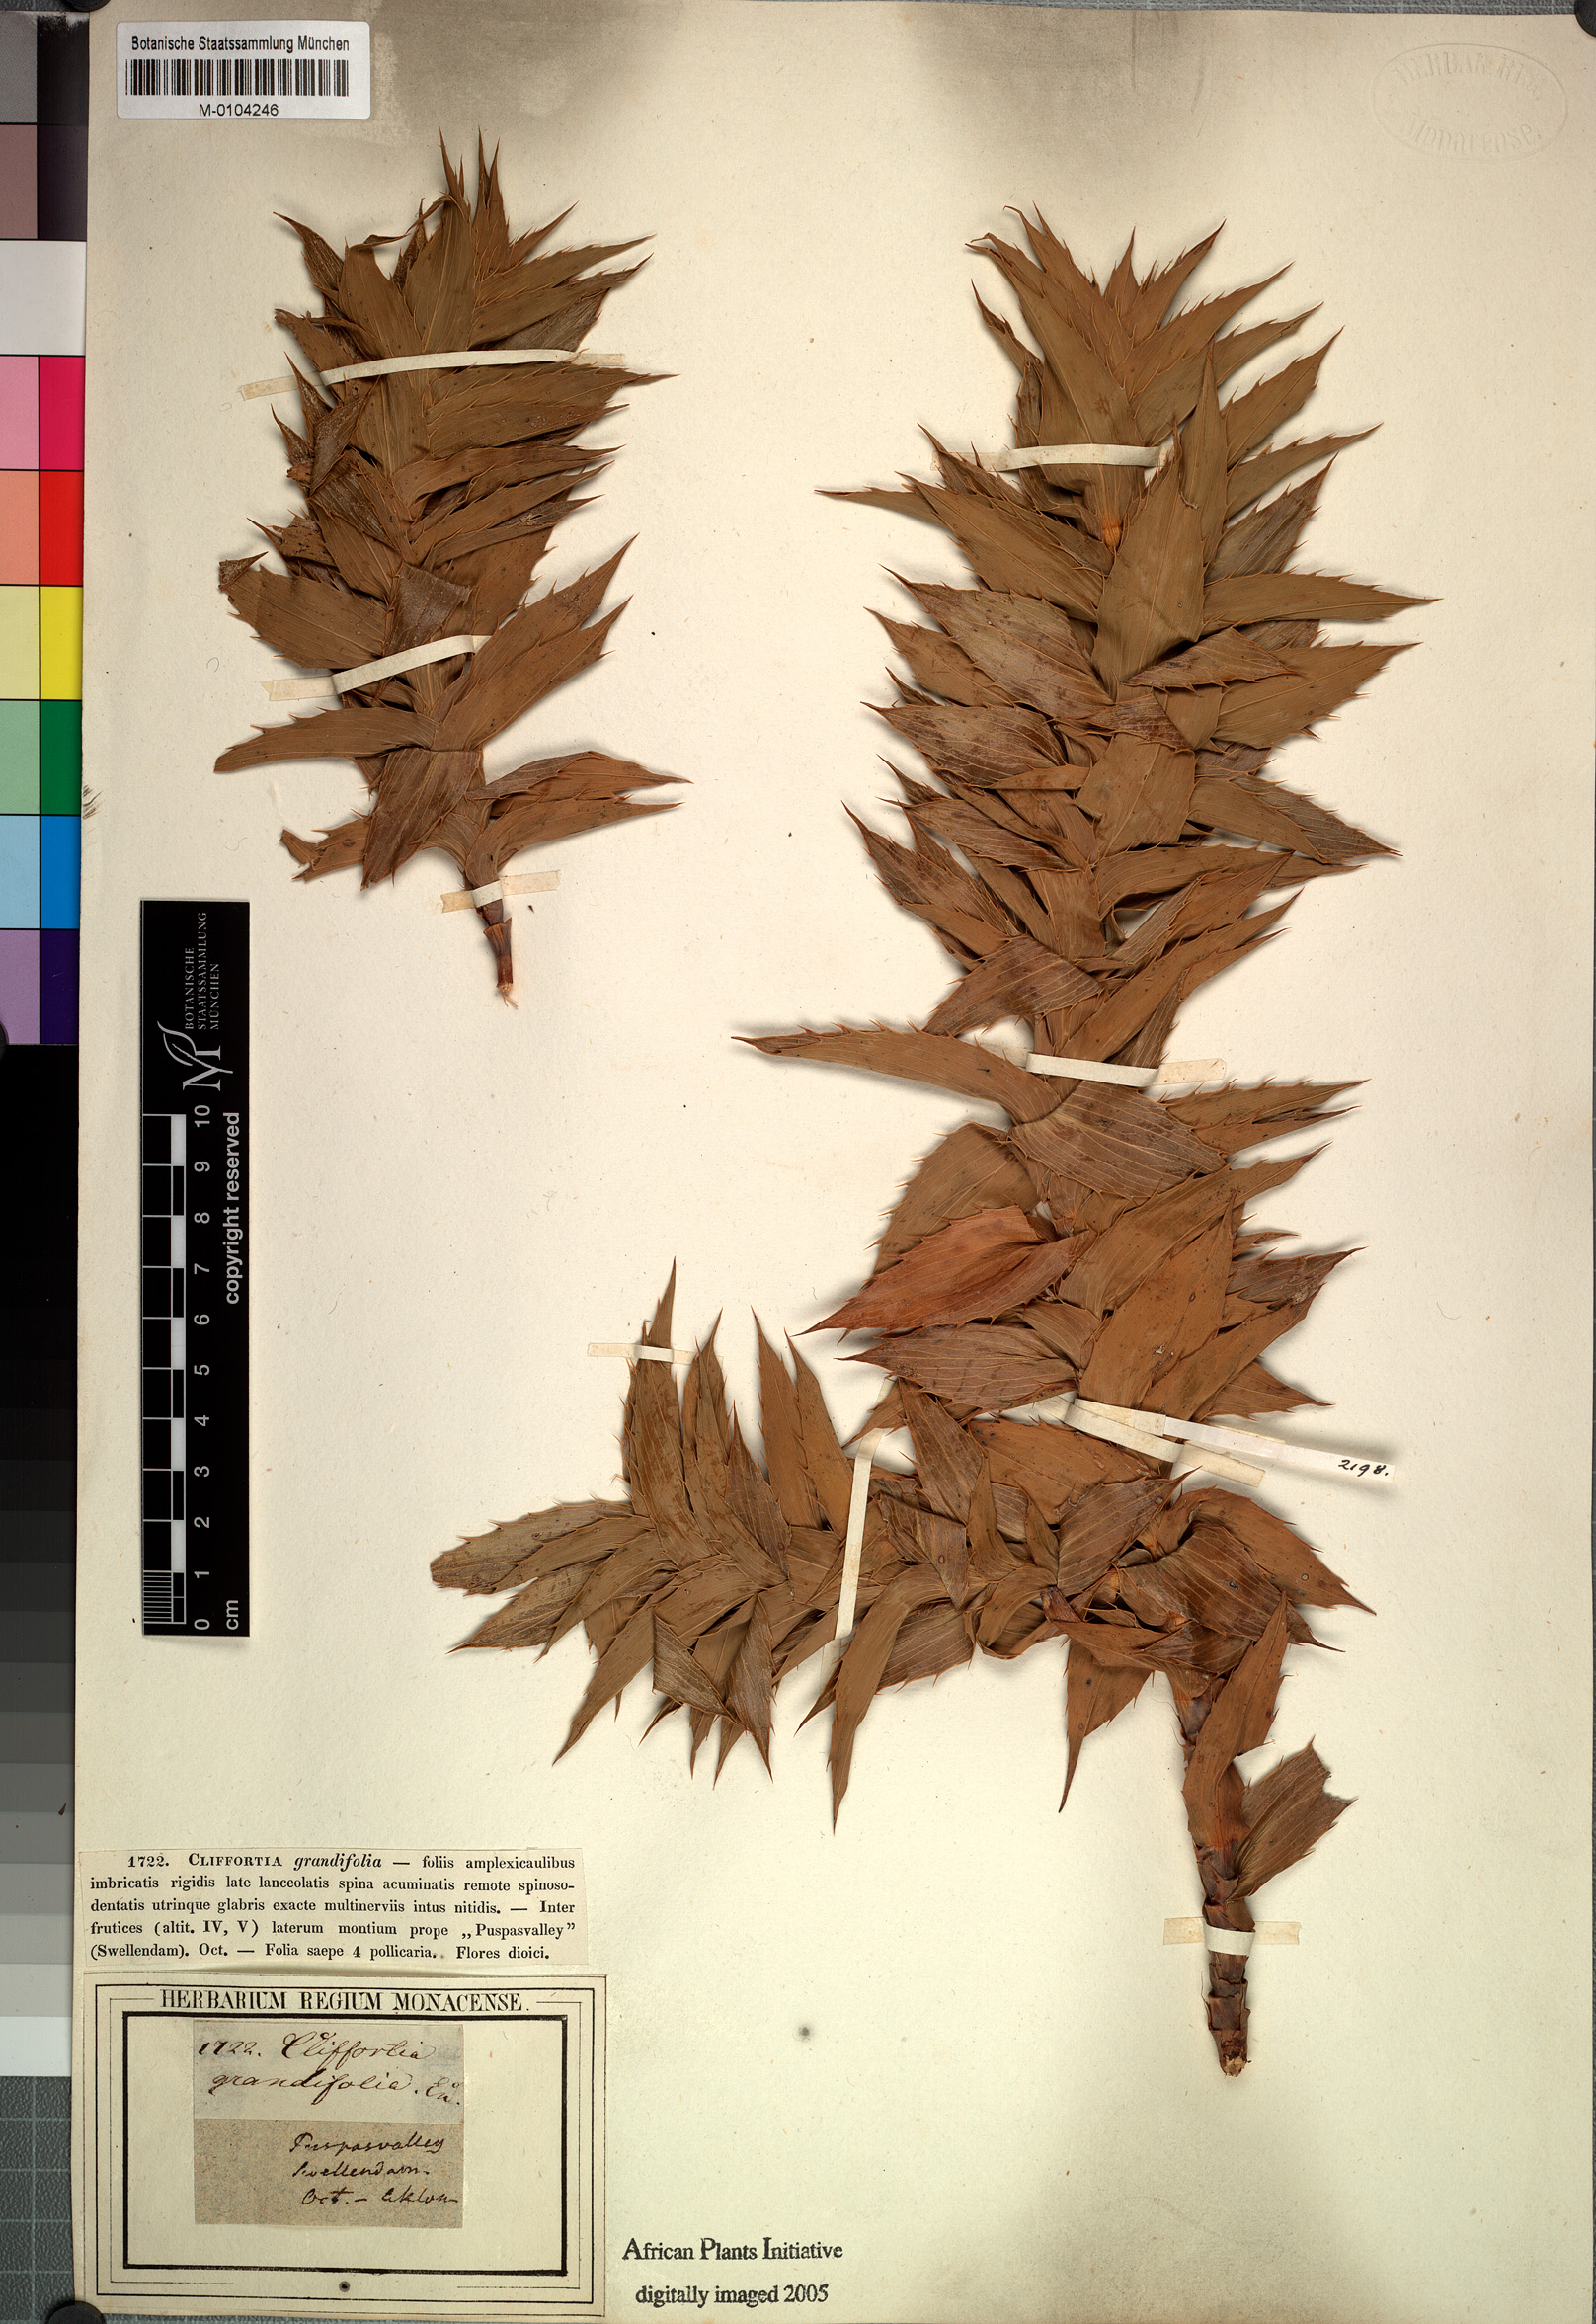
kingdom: Plantae
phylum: Tracheophyta
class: Magnoliopsida
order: Rosales
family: Rosaceae
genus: Cliffortia
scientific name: Cliffortia grandifolia
